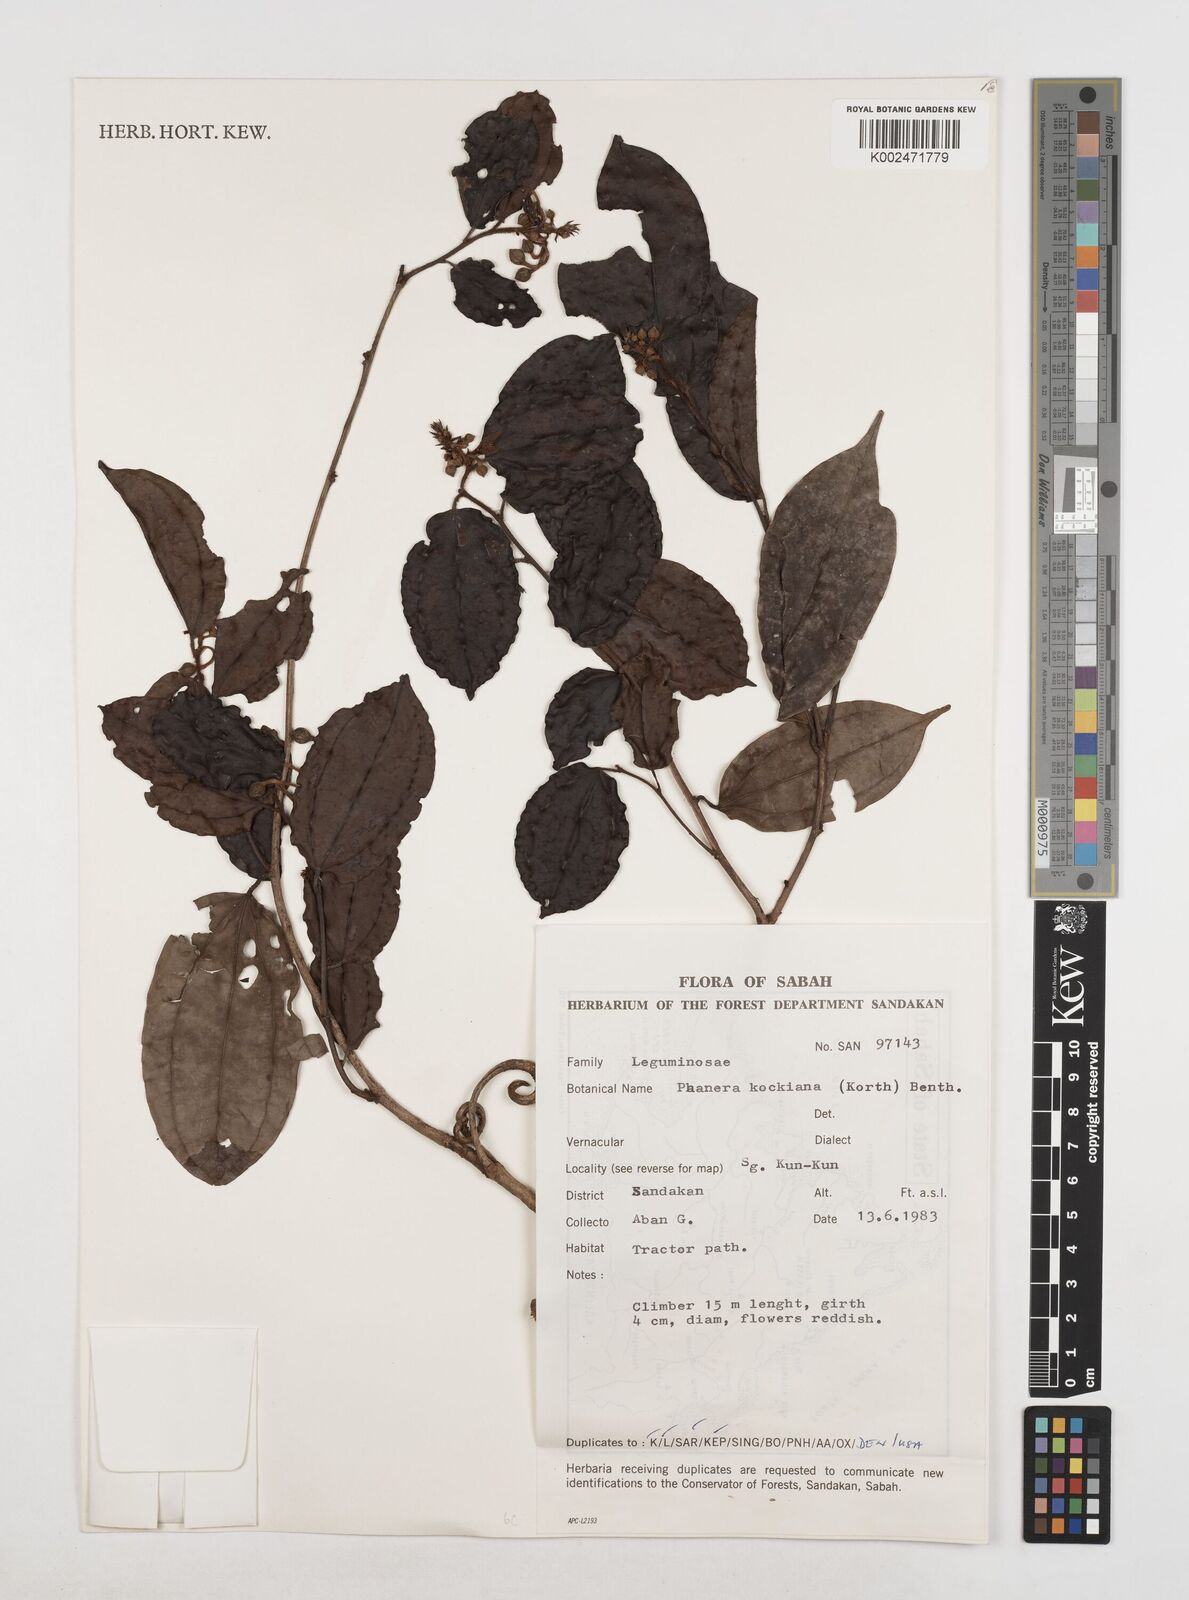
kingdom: Plantae
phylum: Tracheophyta
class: Magnoliopsida
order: Fabales
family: Fabaceae
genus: Phanera
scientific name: Phanera kockiana
